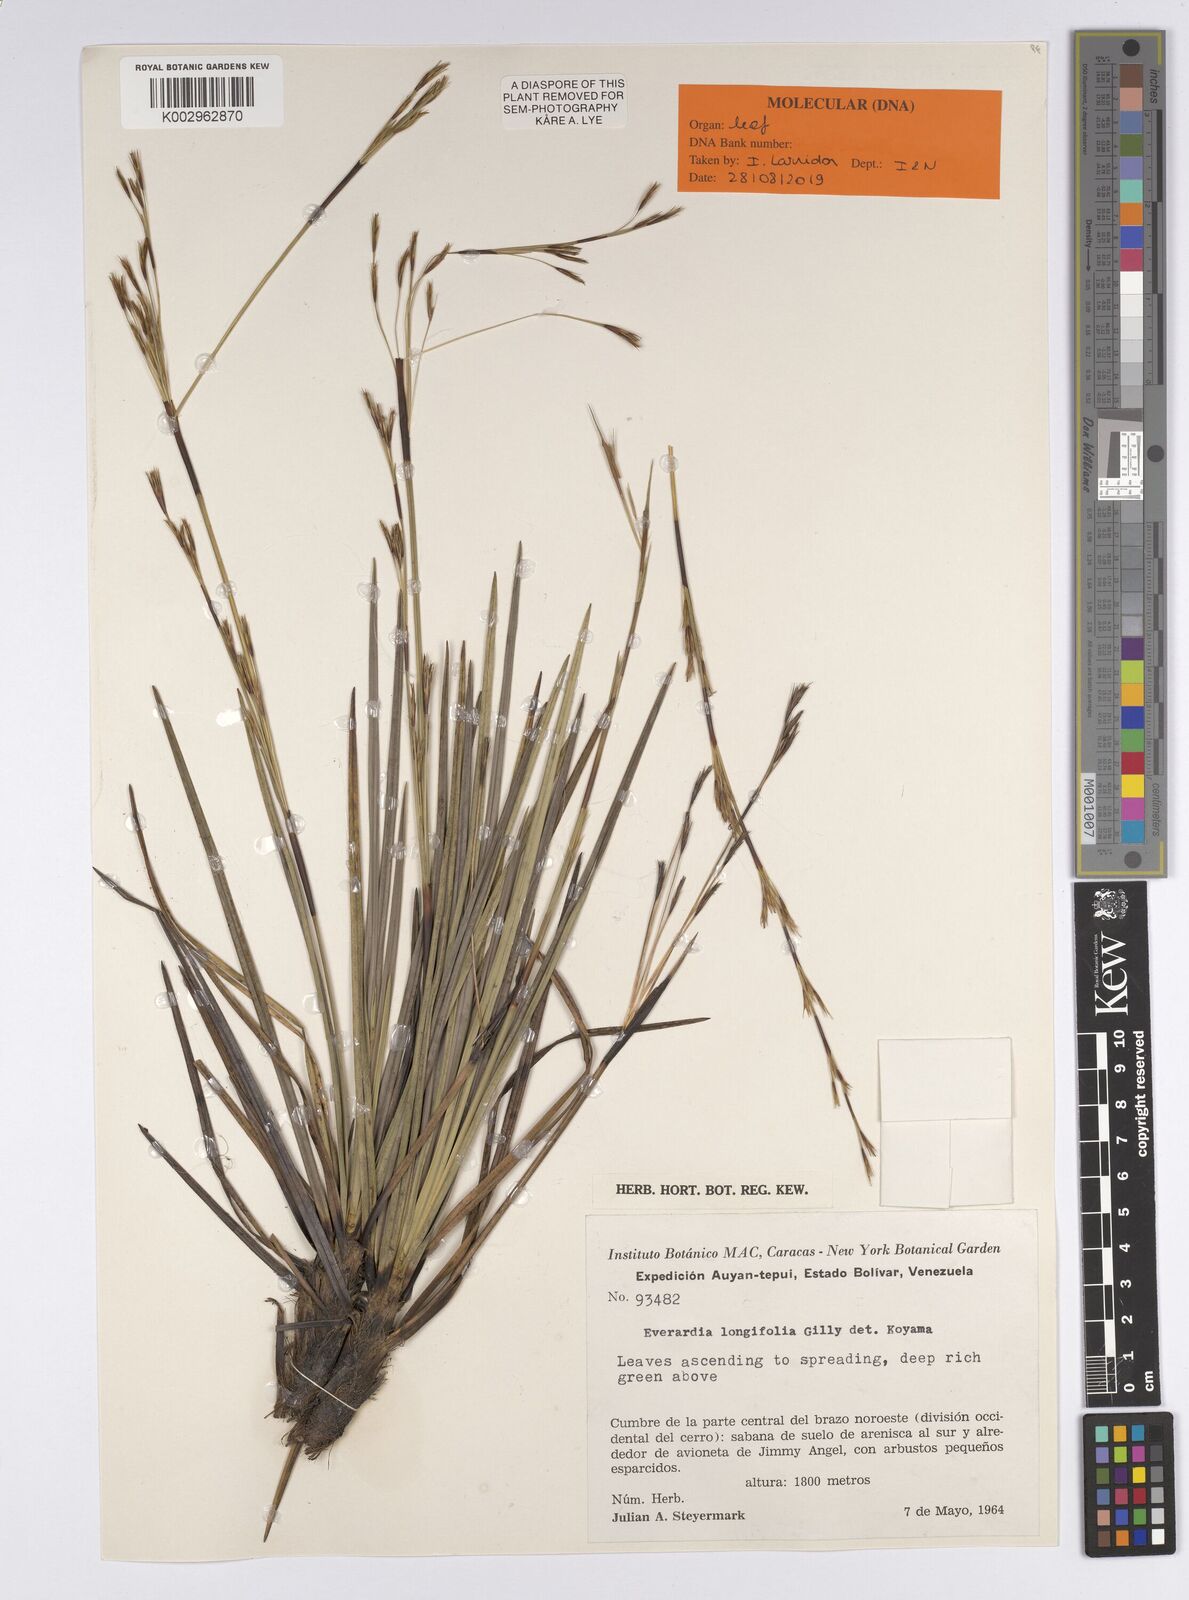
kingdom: Plantae
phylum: Tracheophyta
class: Liliopsida
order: Poales
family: Cyperaceae
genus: Cephalocarpus
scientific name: Cephalocarpus longifolius
